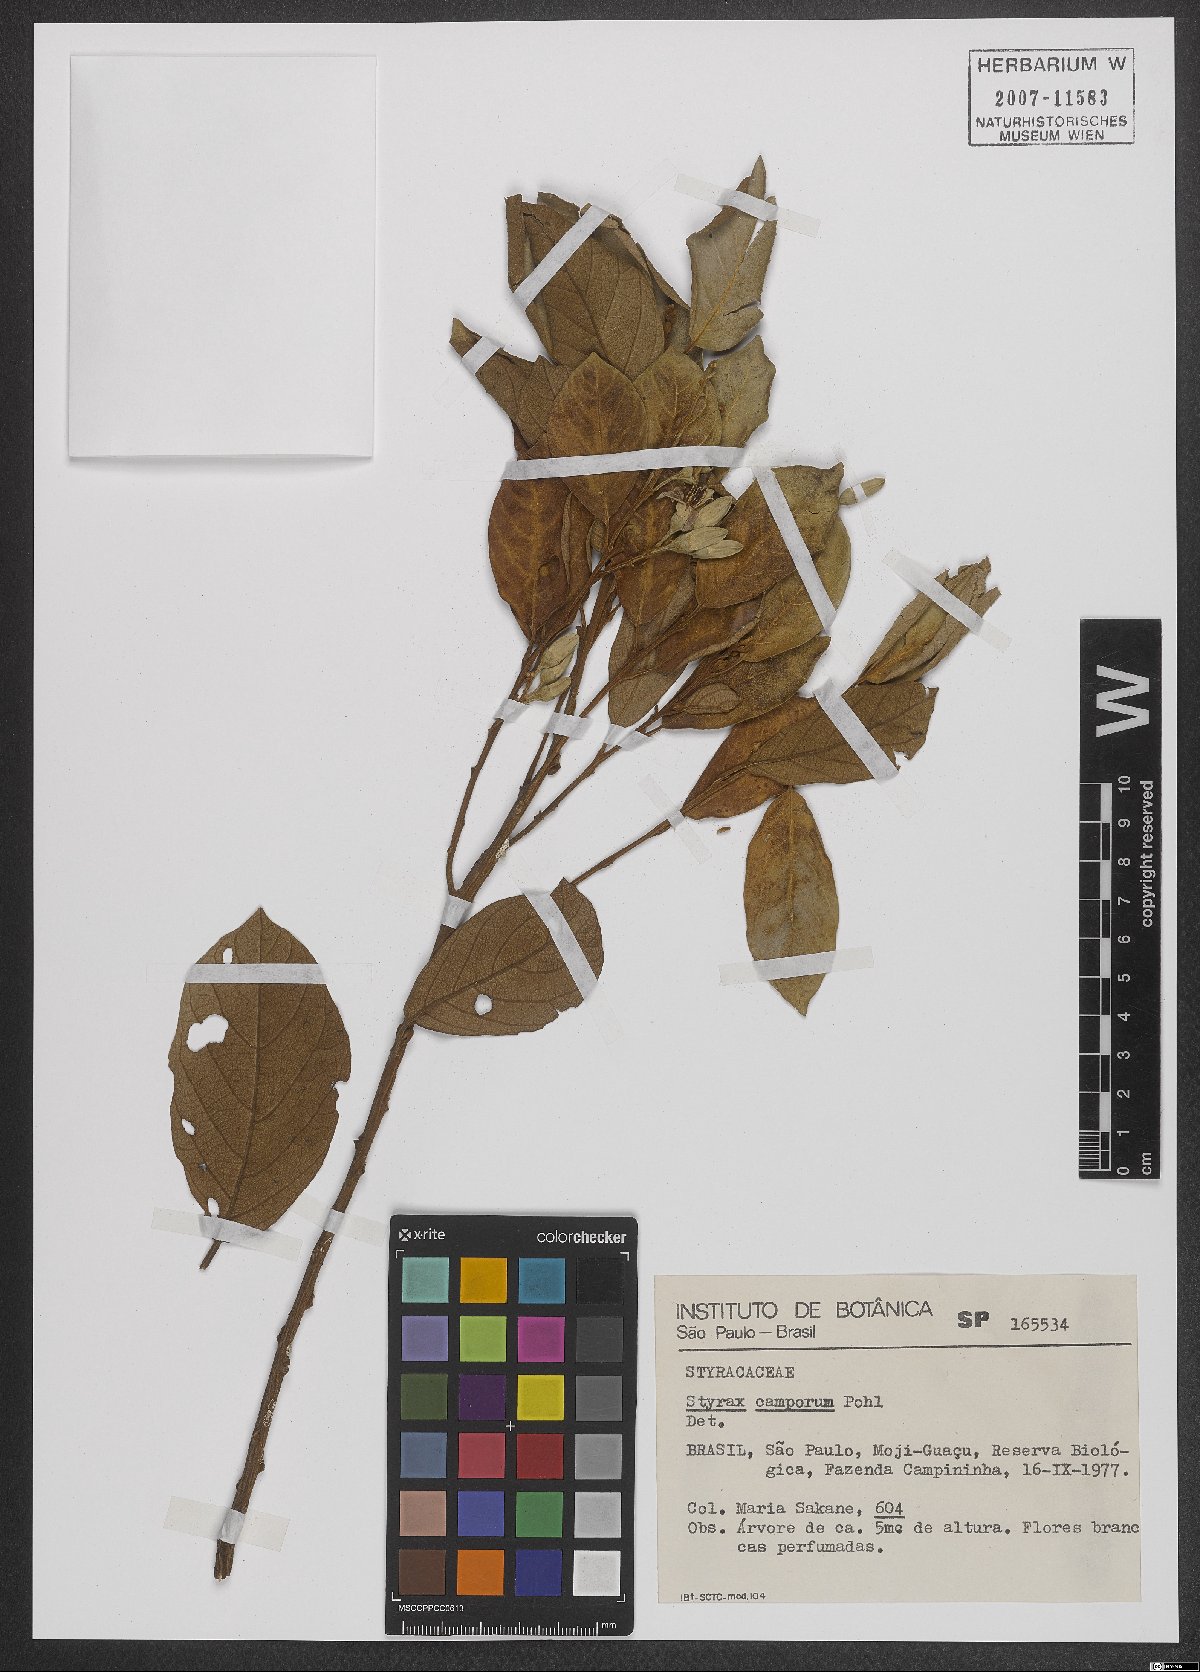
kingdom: Plantae
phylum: Tracheophyta
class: Magnoliopsida
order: Ericales
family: Styracaceae
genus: Styrax
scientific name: Styrax camporum
